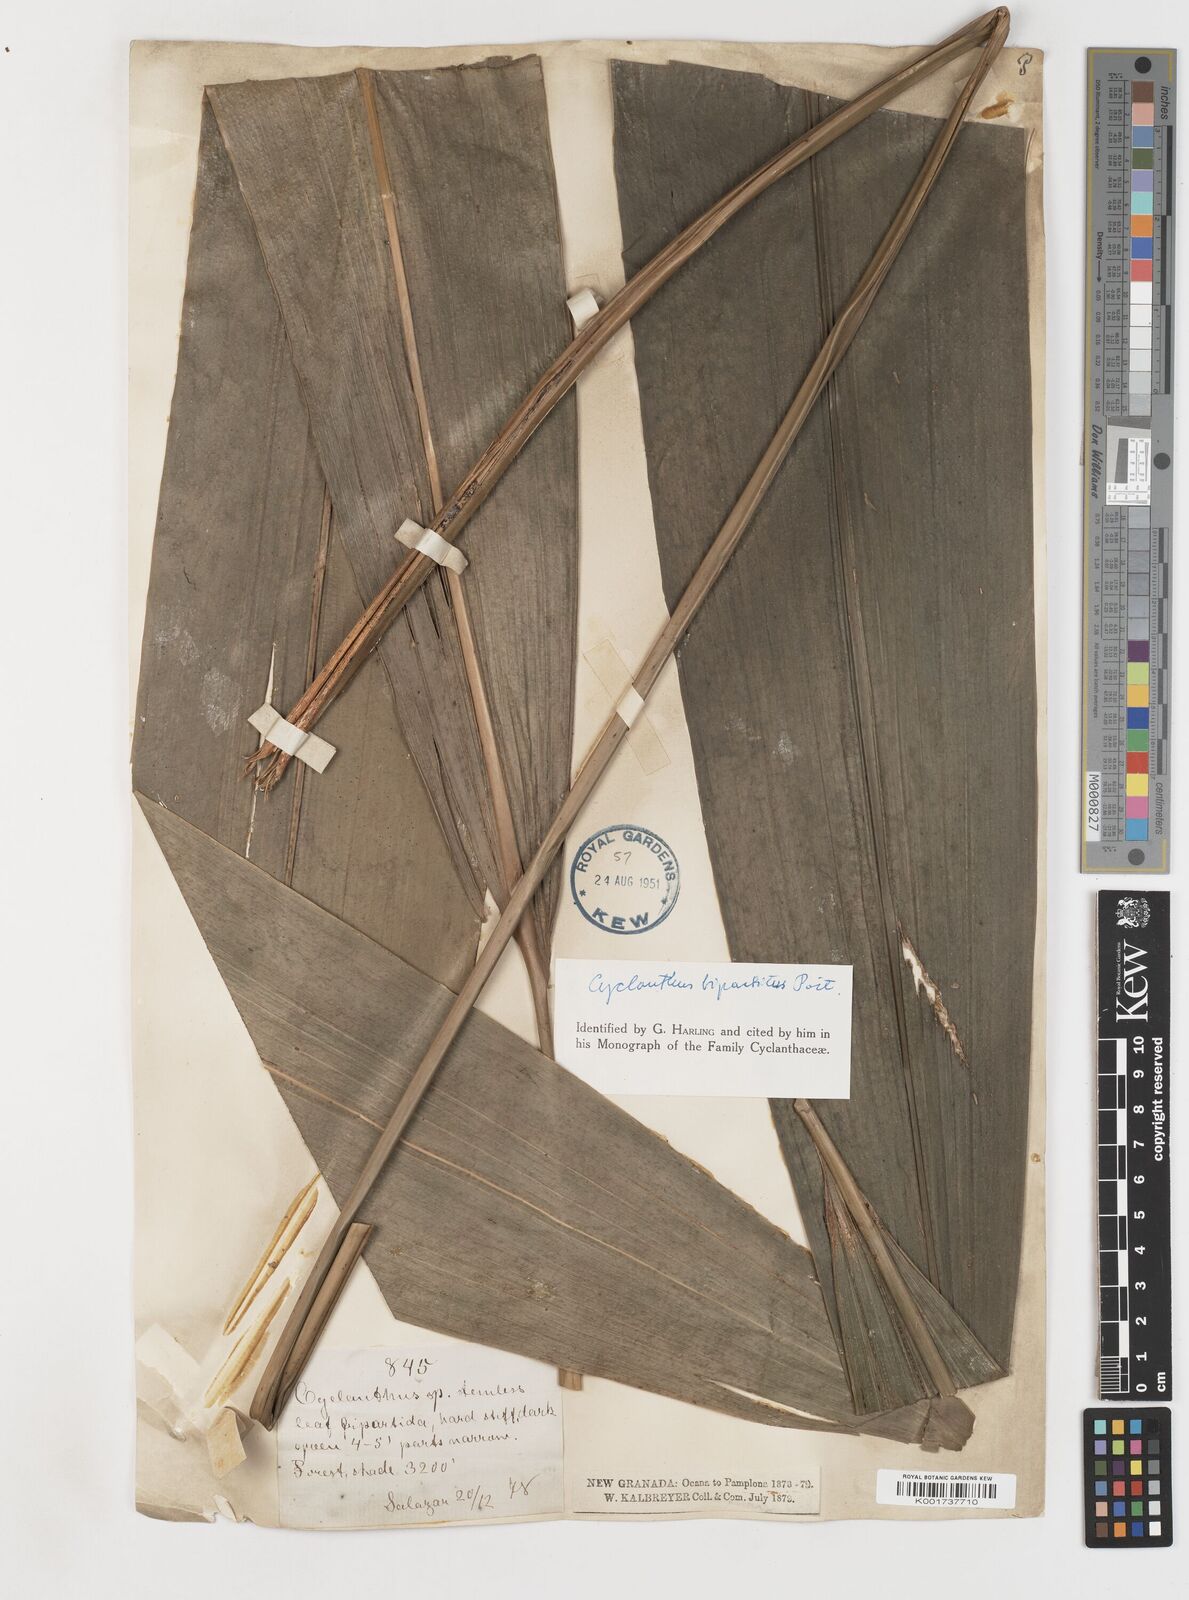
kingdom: Plantae
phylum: Tracheophyta
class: Liliopsida
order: Pandanales
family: Cyclanthaceae
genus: Cyclanthus
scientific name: Cyclanthus bipartitus
